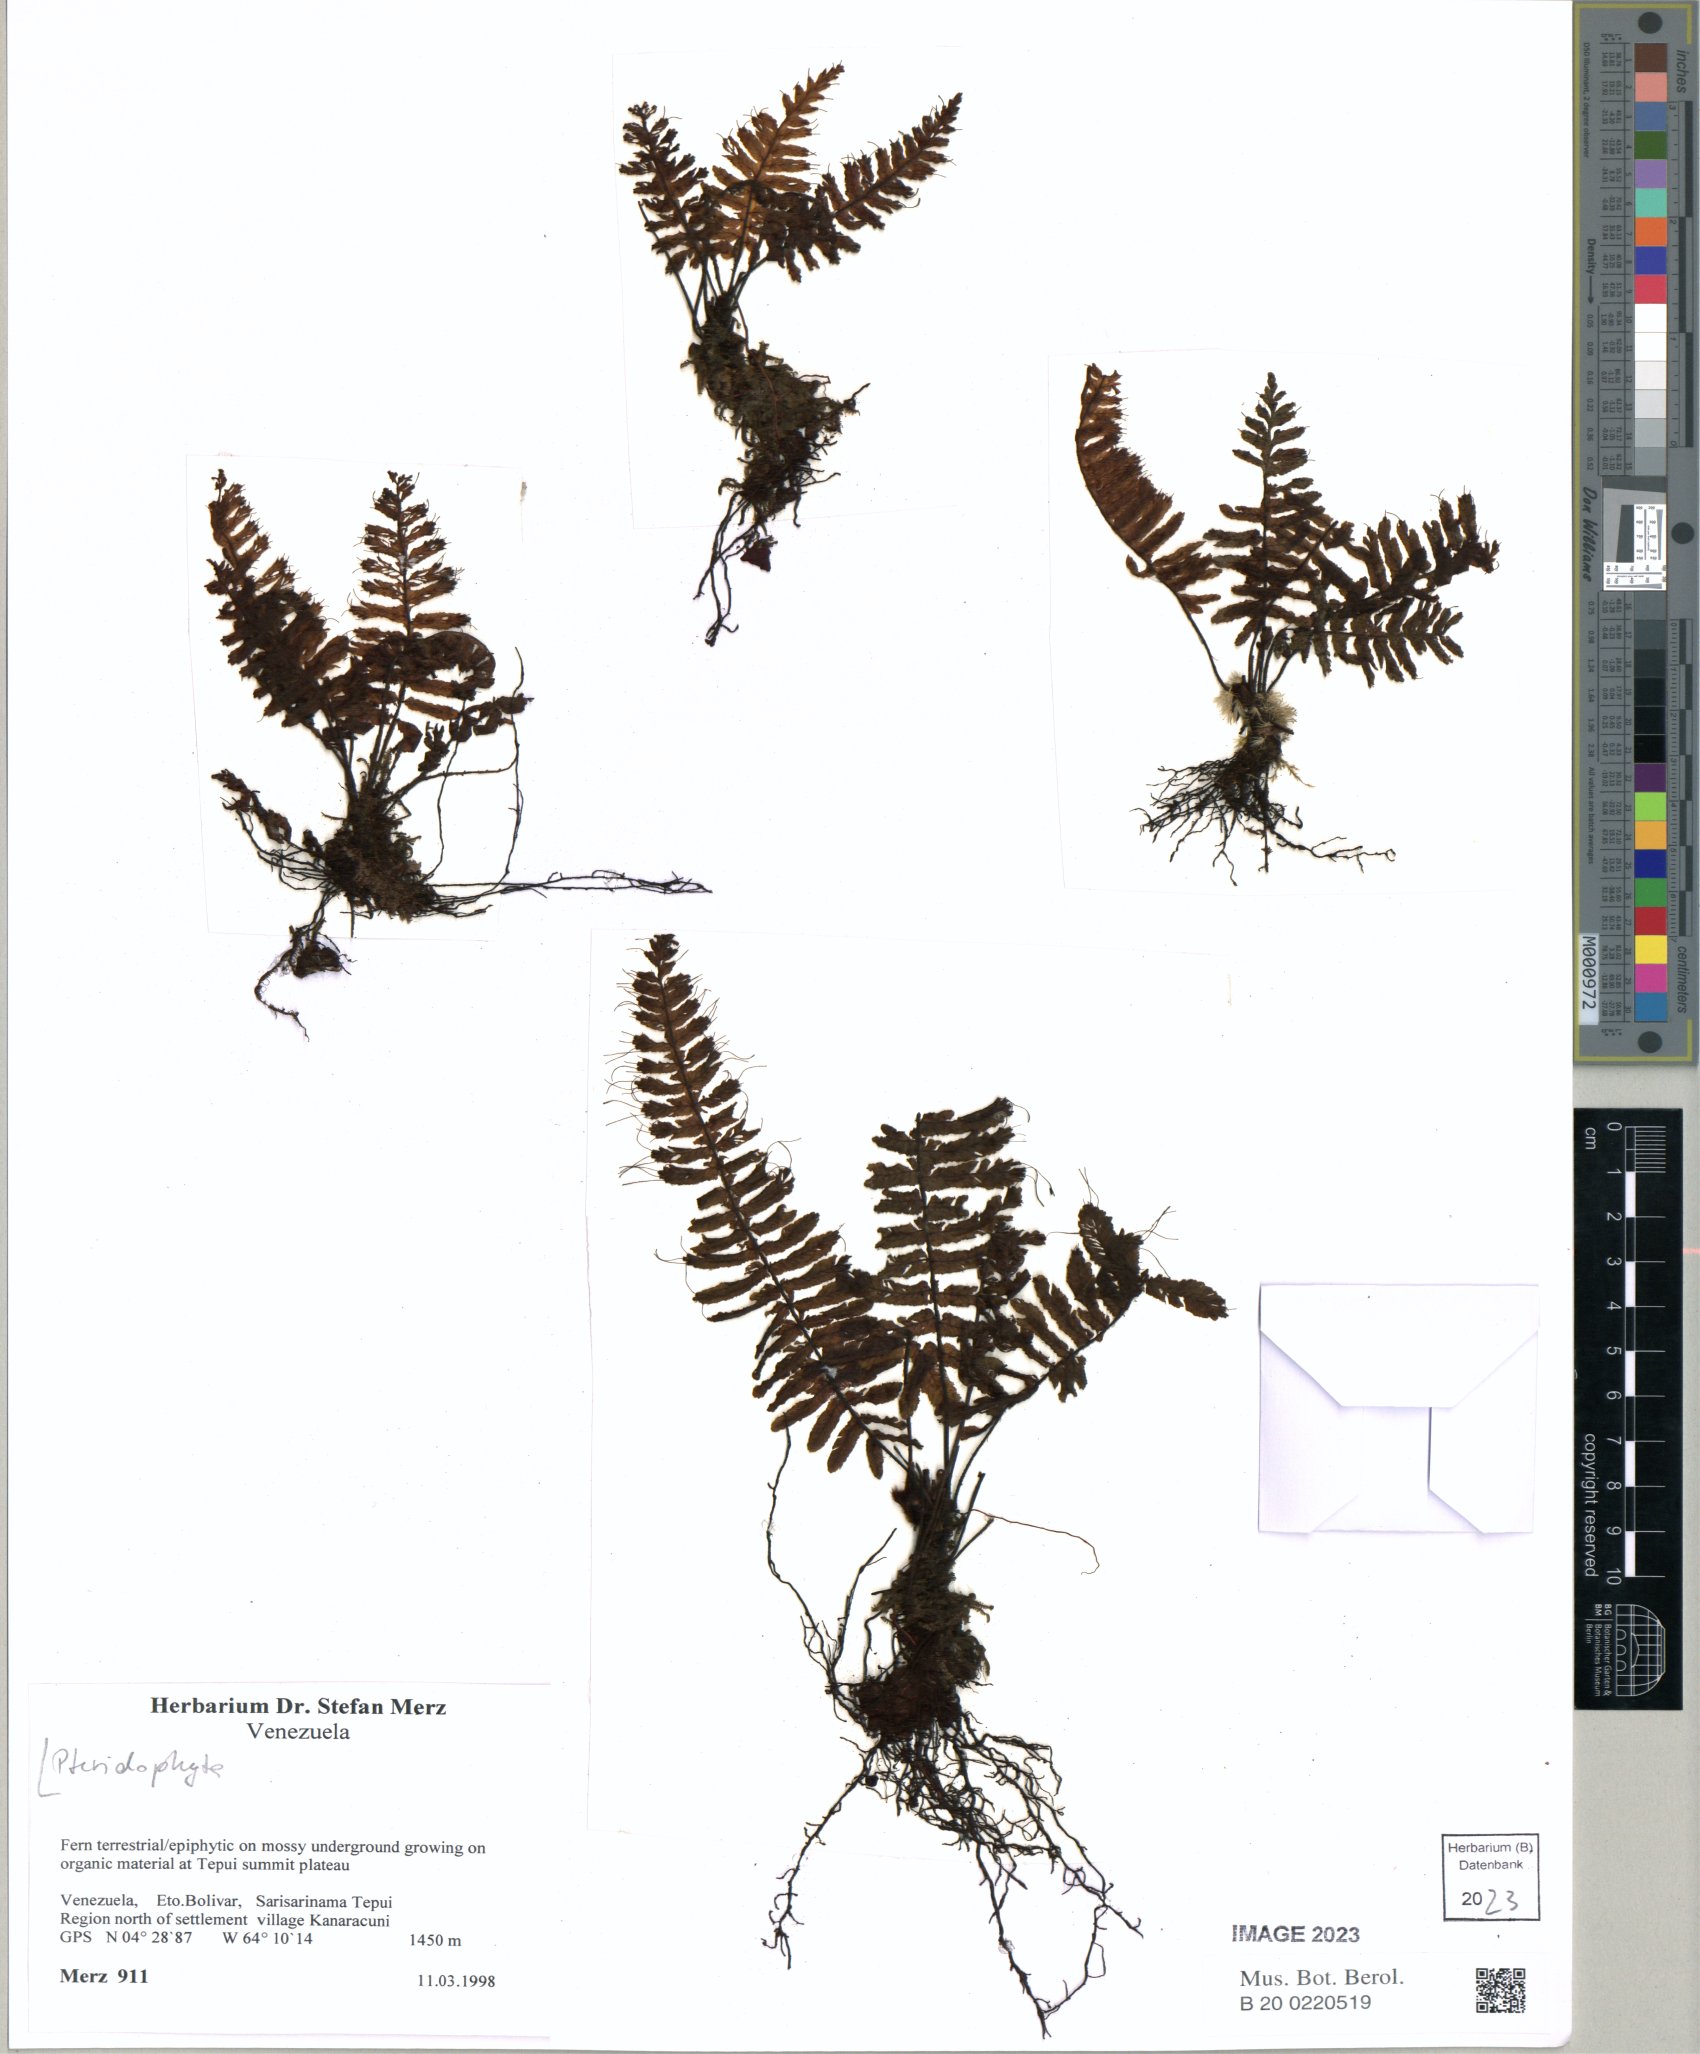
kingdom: Plantae
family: Pteridophyta
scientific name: Pteridophyta
